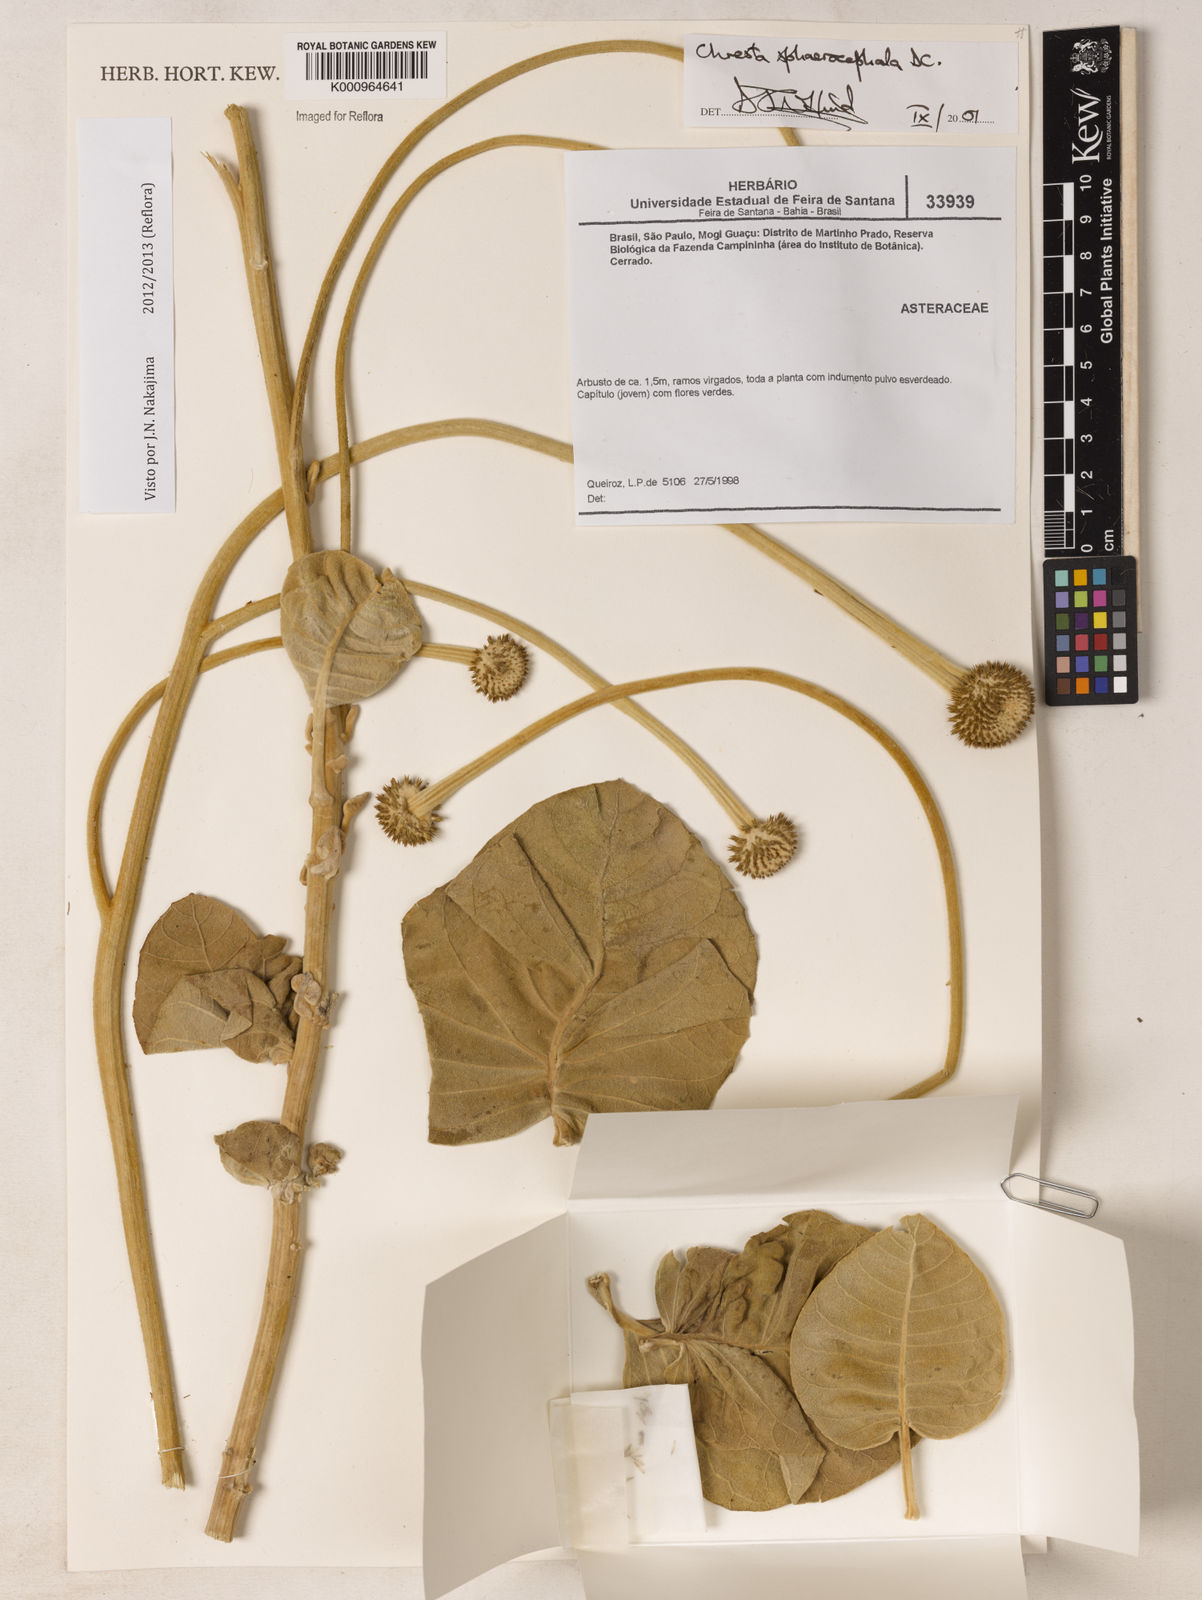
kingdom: Plantae
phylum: Tracheophyta
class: Magnoliopsida
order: Asterales
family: Asteraceae
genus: Chresta
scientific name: Chresta sphaerocephala
